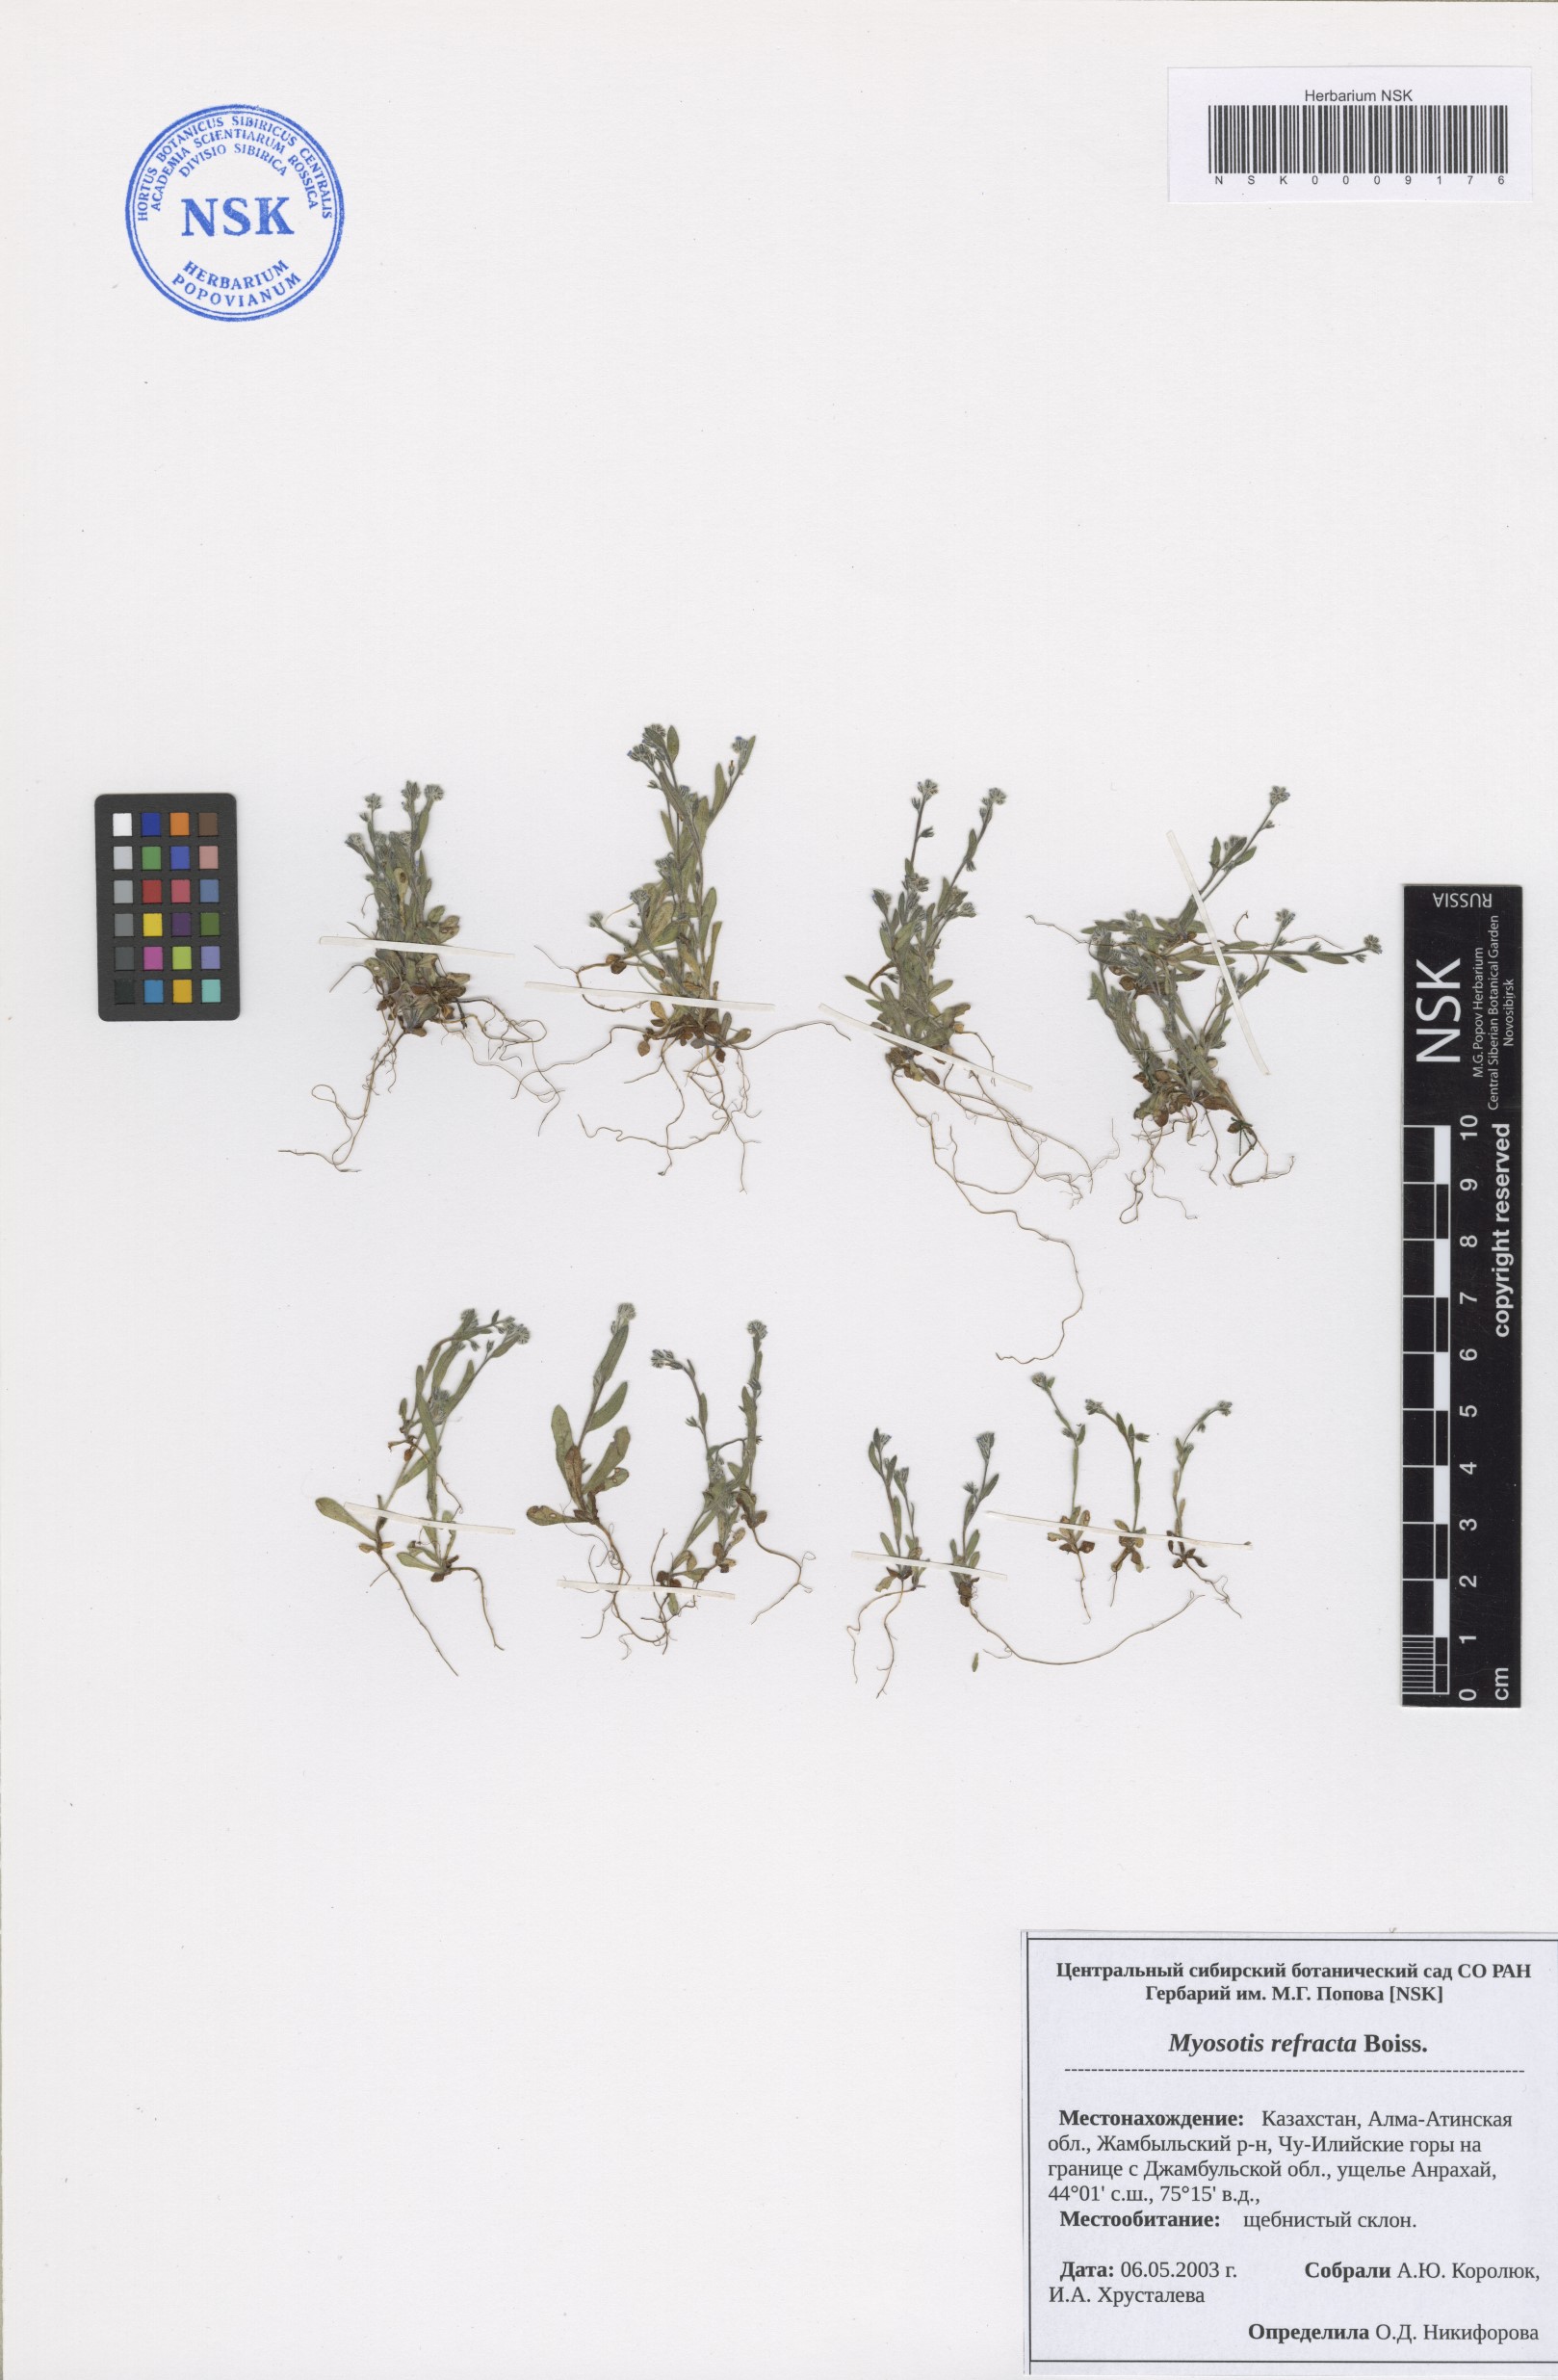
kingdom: Plantae
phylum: Tracheophyta
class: Magnoliopsida
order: Boraginales
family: Boraginaceae
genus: Myosotis
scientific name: Myosotis refracta
